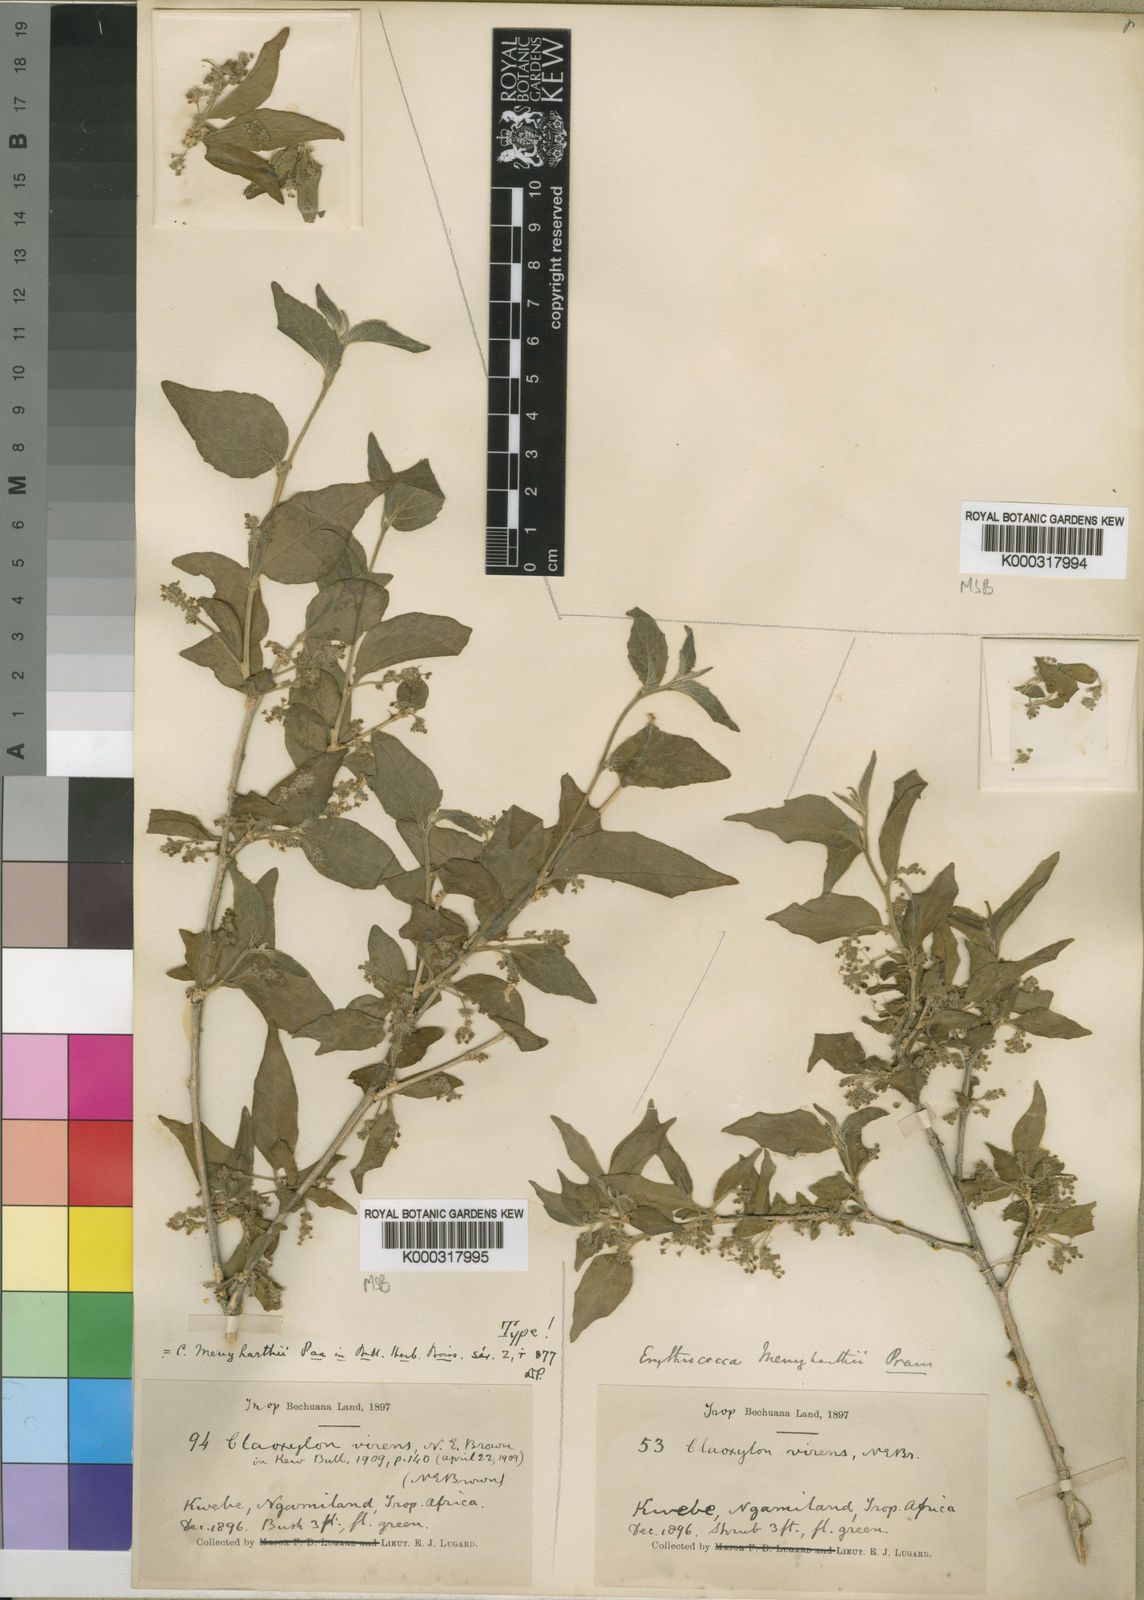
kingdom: Plantae
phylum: Tracheophyta
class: Magnoliopsida
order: Malpighiales
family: Euphorbiaceae
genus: Erythrococca
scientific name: Erythrococca menyharthii
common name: Northern red-berry
